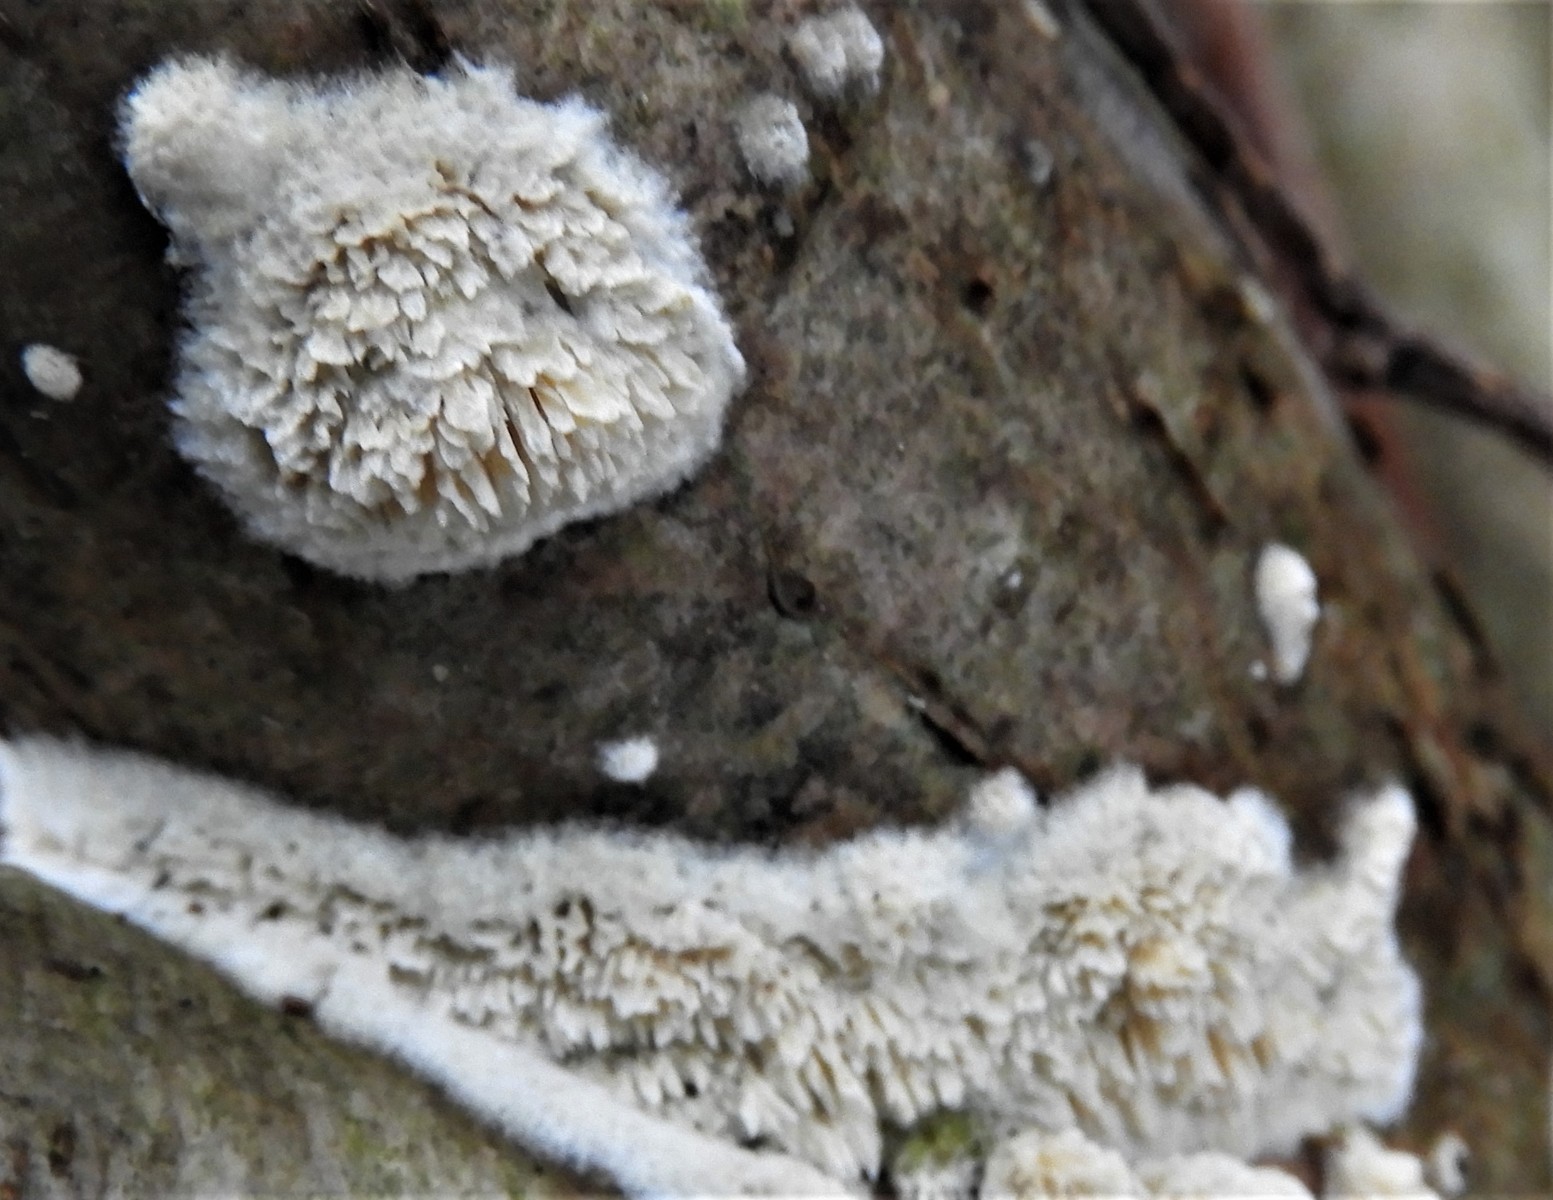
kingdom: Fungi
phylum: Basidiomycota
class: Agaricomycetes
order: Hymenochaetales
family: Schizoporaceae
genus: Xylodon
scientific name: Xylodon radula
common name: grovtandet kalkskind
